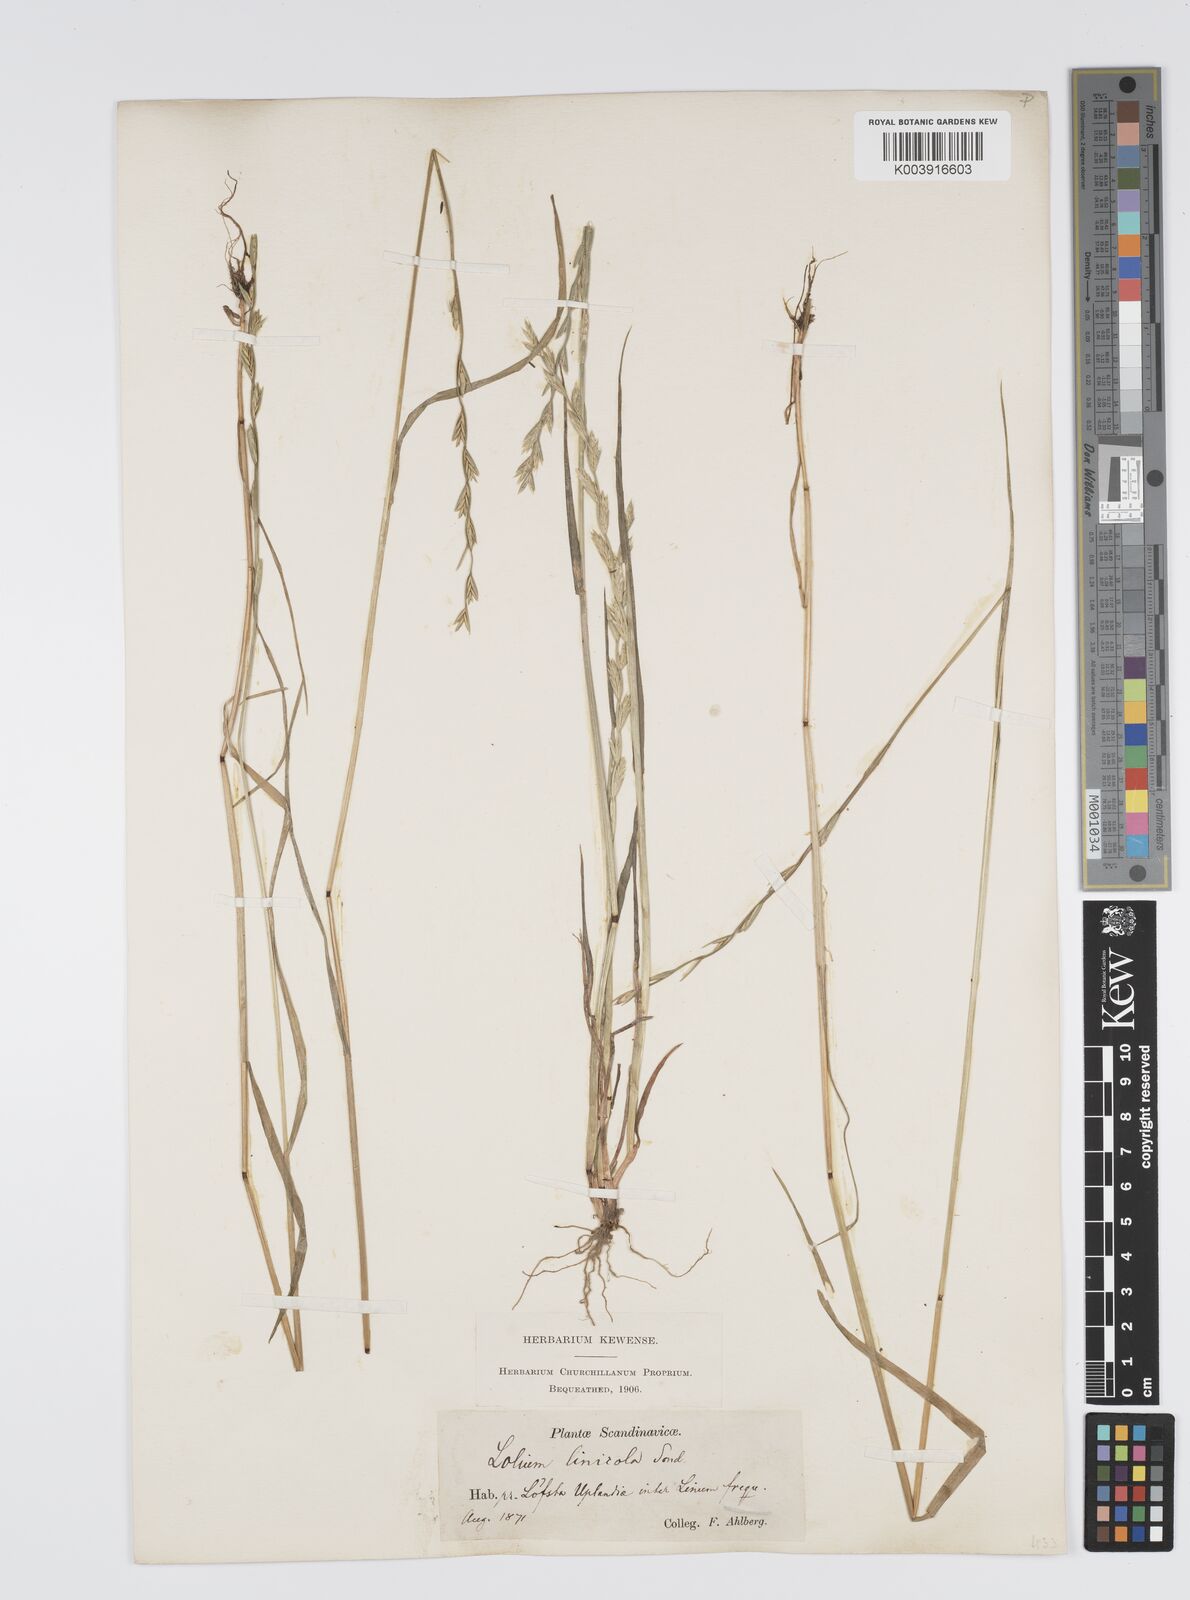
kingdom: Plantae
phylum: Tracheophyta
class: Liliopsida
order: Poales
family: Poaceae
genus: Lolium
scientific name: Lolium remotum
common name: Flaxfield rye-grass
